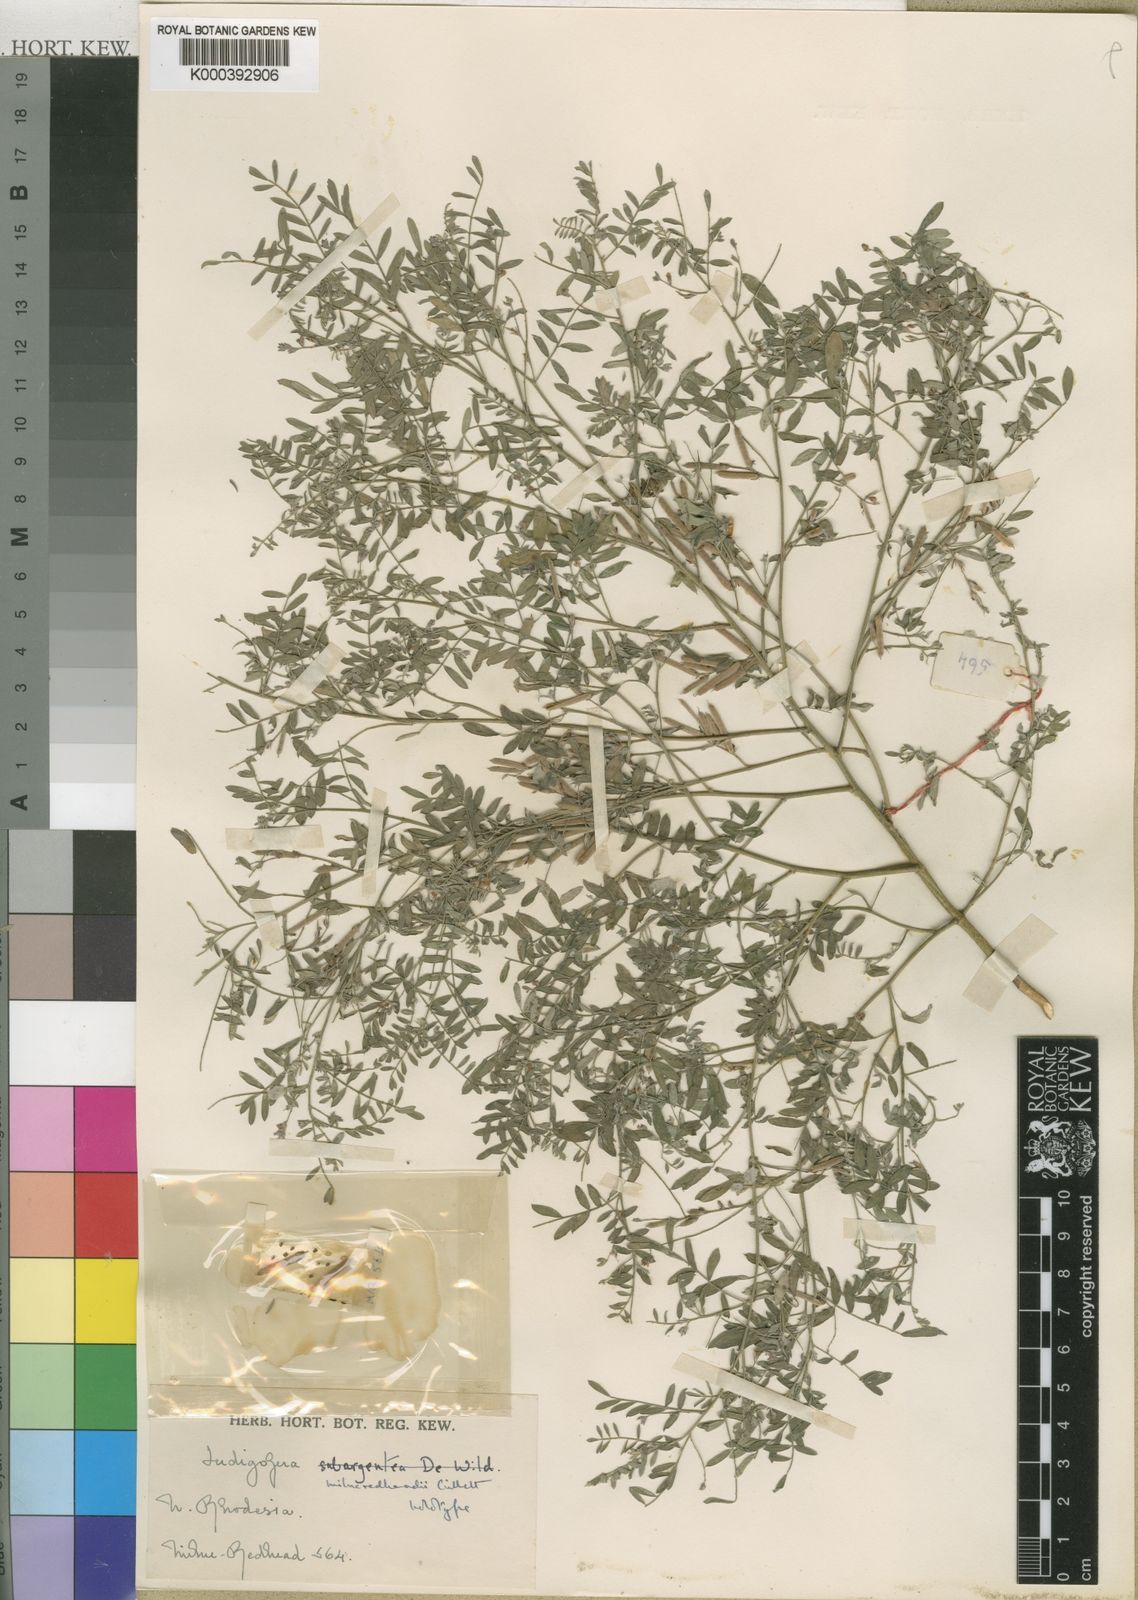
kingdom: Plantae
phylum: Tracheophyta
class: Magnoliopsida
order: Fabales
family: Fabaceae
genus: Indigofera
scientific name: Indigofera milne-redheadii
